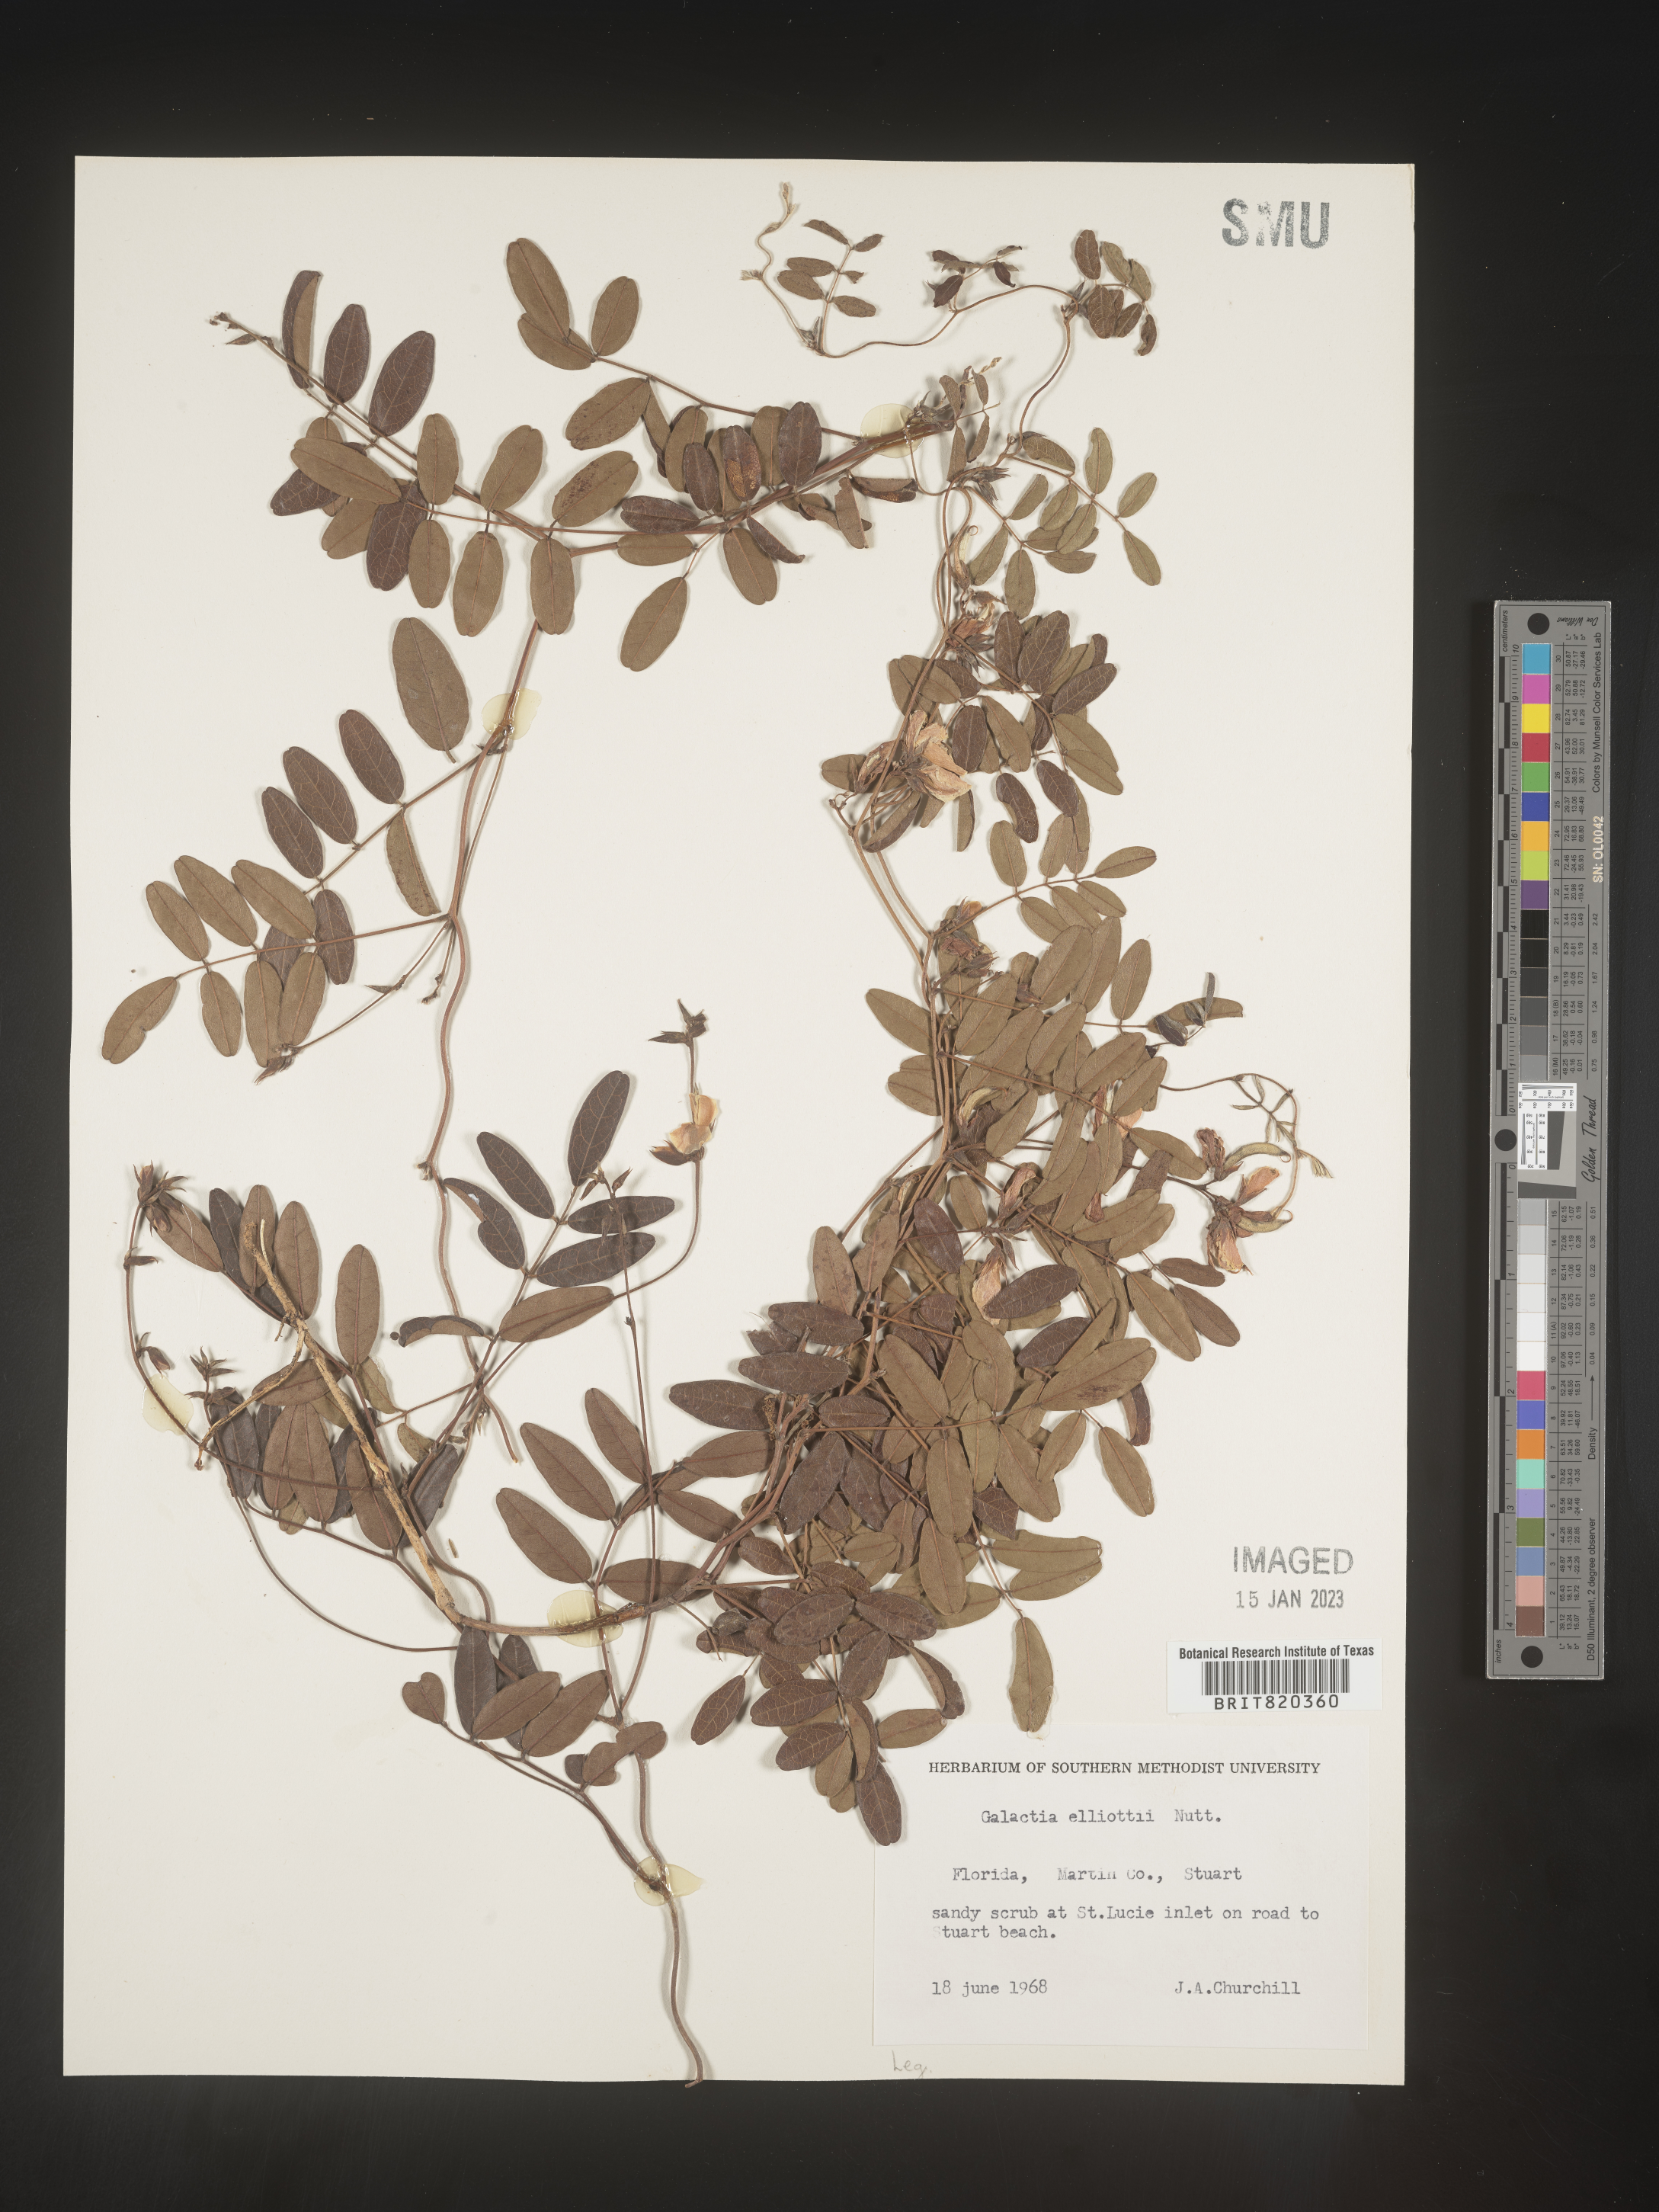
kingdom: Plantae
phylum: Tracheophyta
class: Magnoliopsida
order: Fabales
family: Fabaceae
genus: Galactia
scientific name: Galactia elliottii
